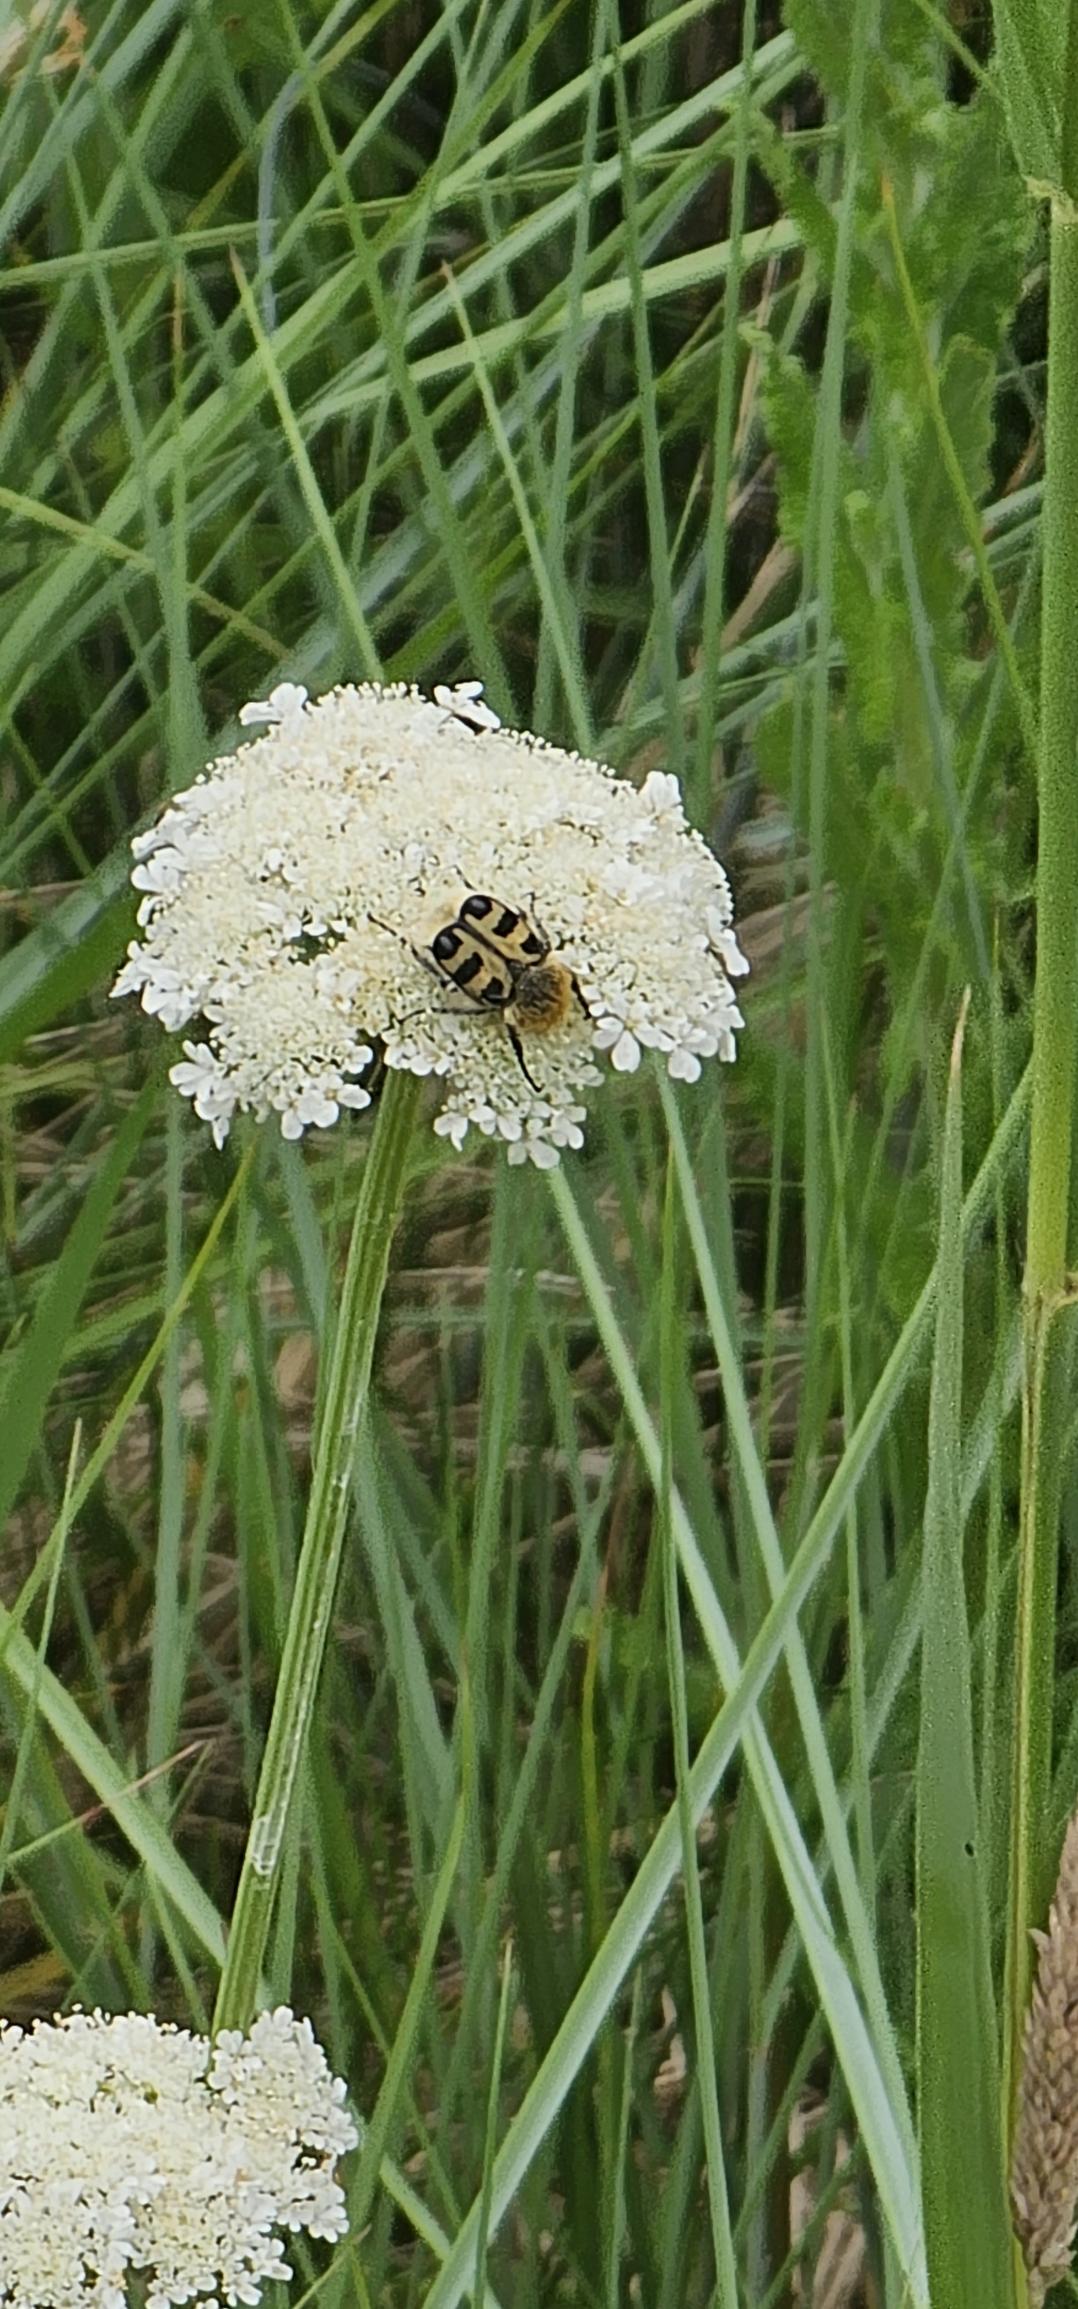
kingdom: Animalia
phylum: Arthropoda
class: Insecta
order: Coleoptera
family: Scarabaeidae
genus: Trichius
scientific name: Trichius gallicus
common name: Lille humlebille
